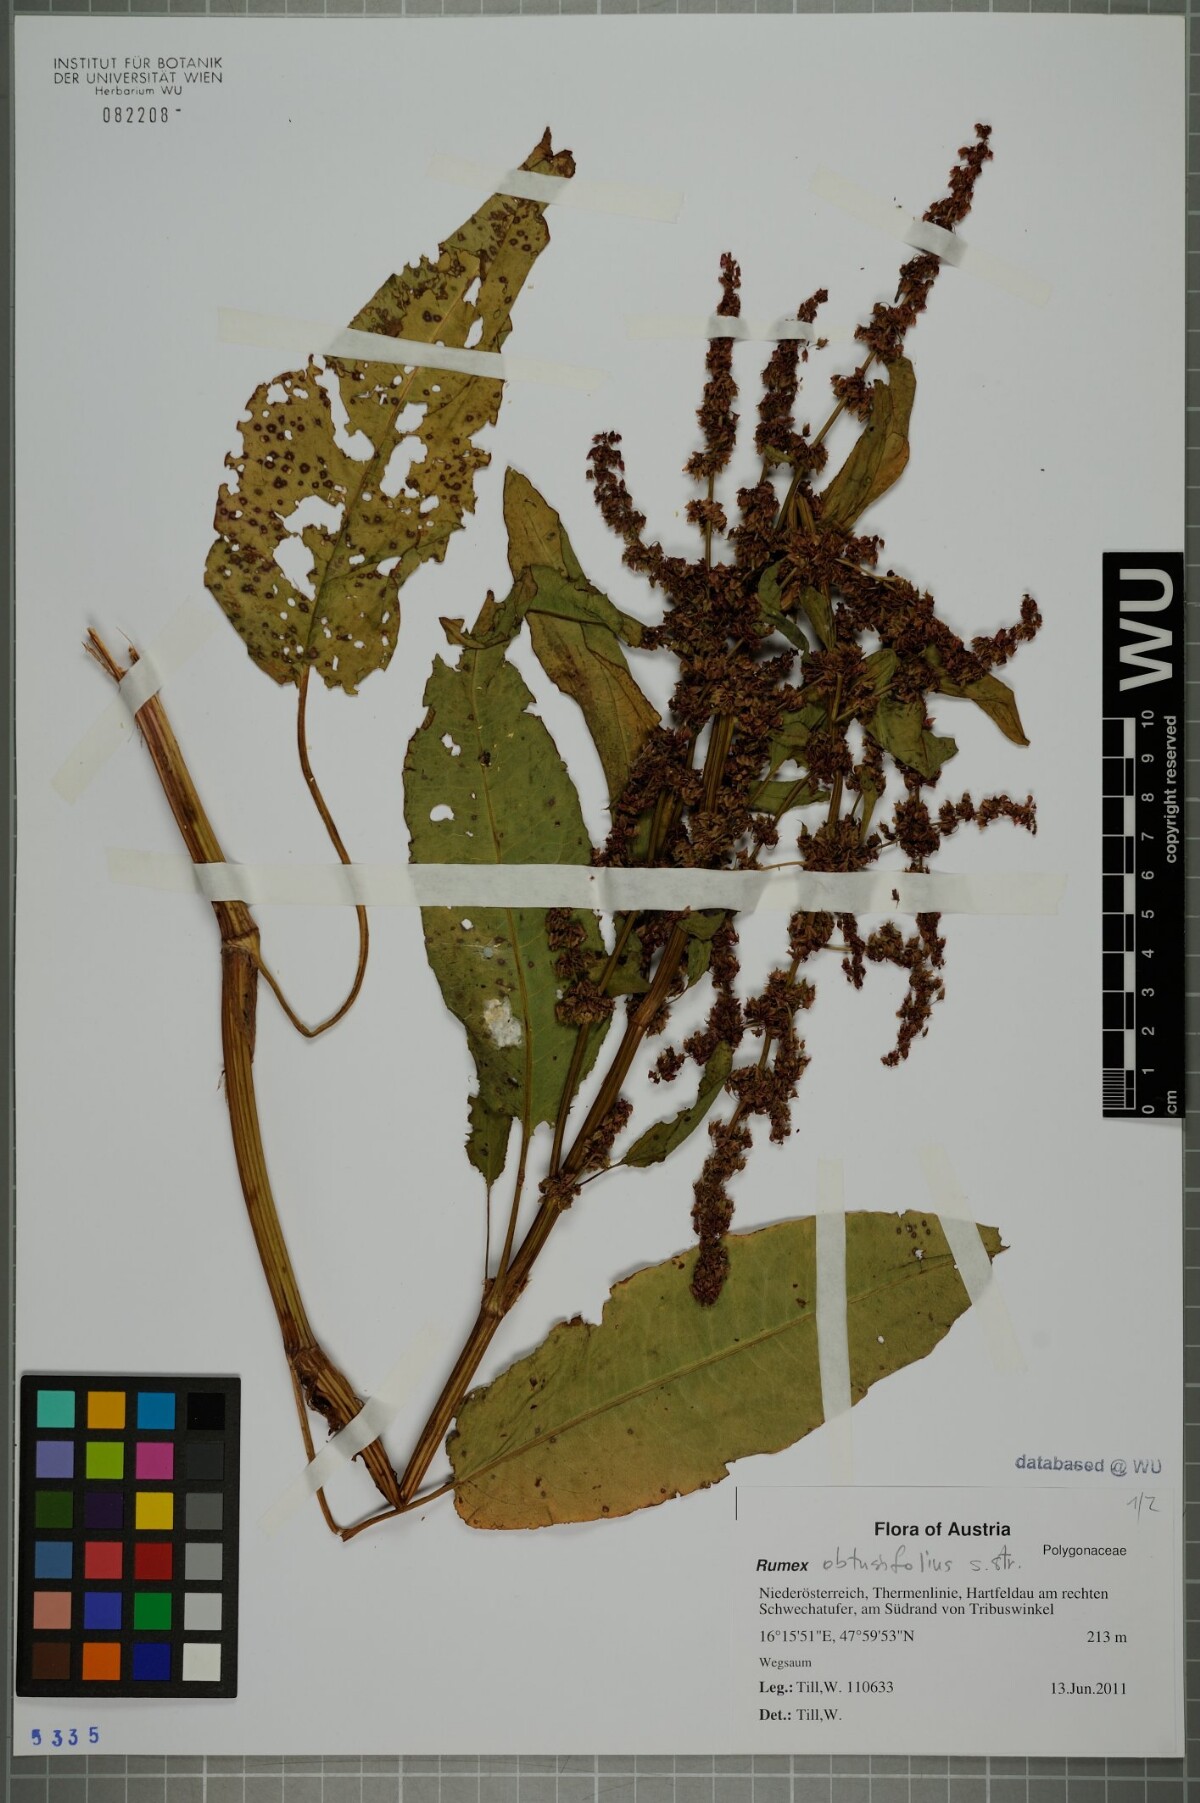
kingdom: Plantae
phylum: Tracheophyta
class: Magnoliopsida
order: Caryophyllales
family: Polygonaceae
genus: Rumex
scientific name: Rumex obtusifolius
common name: Bitter dock
